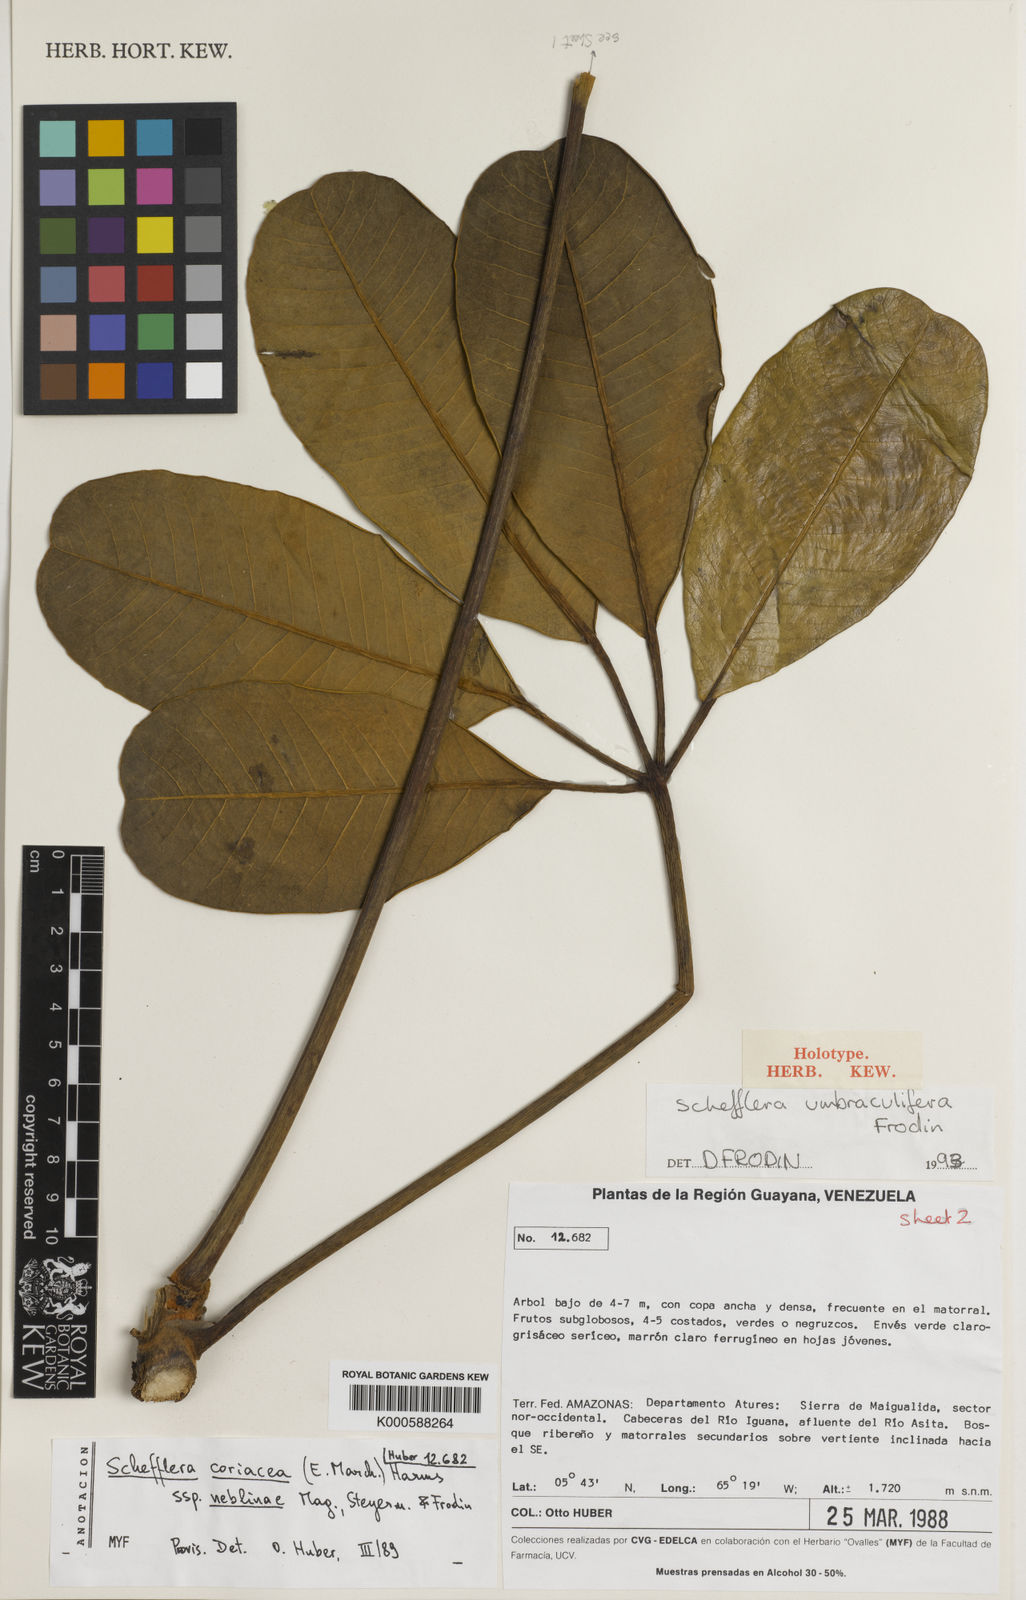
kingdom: Plantae
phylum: Tracheophyta
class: Magnoliopsida
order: Apiales
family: Araliaceae
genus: Crepinella
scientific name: Crepinella
